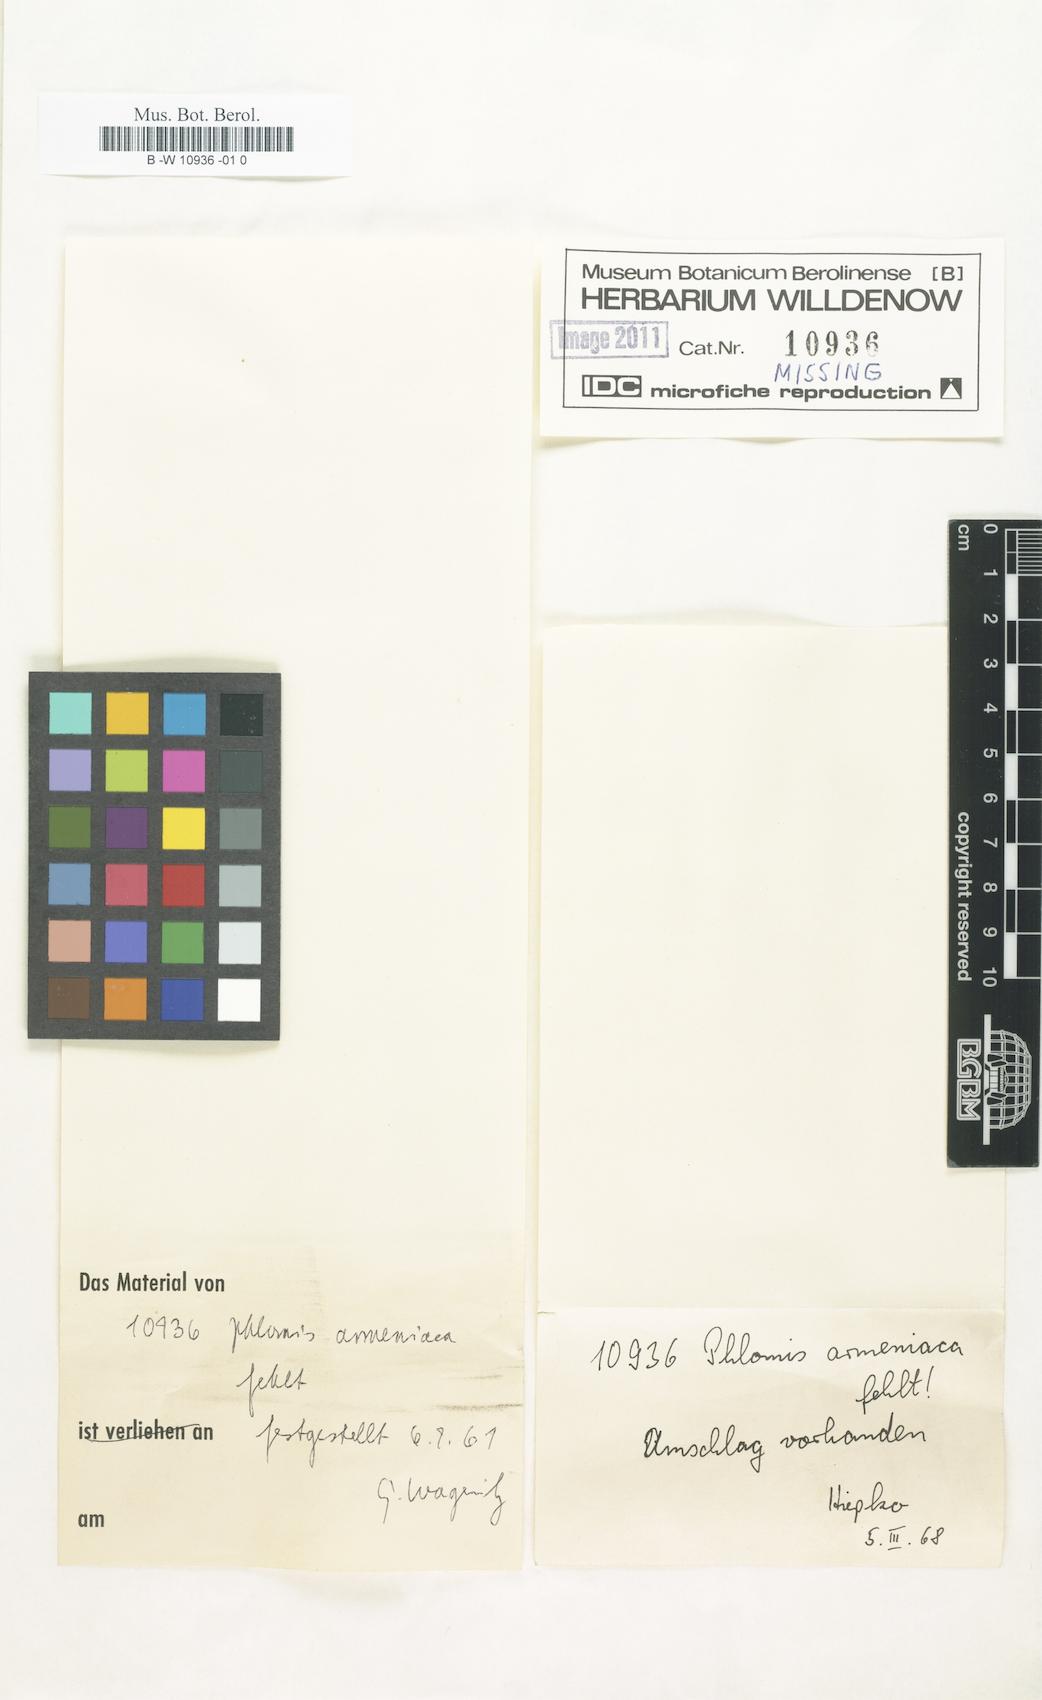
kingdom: Plantae
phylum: Tracheophyta
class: Magnoliopsida
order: Lamiales
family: Lamiaceae
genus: Phlomis
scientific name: Phlomis armeniaca
